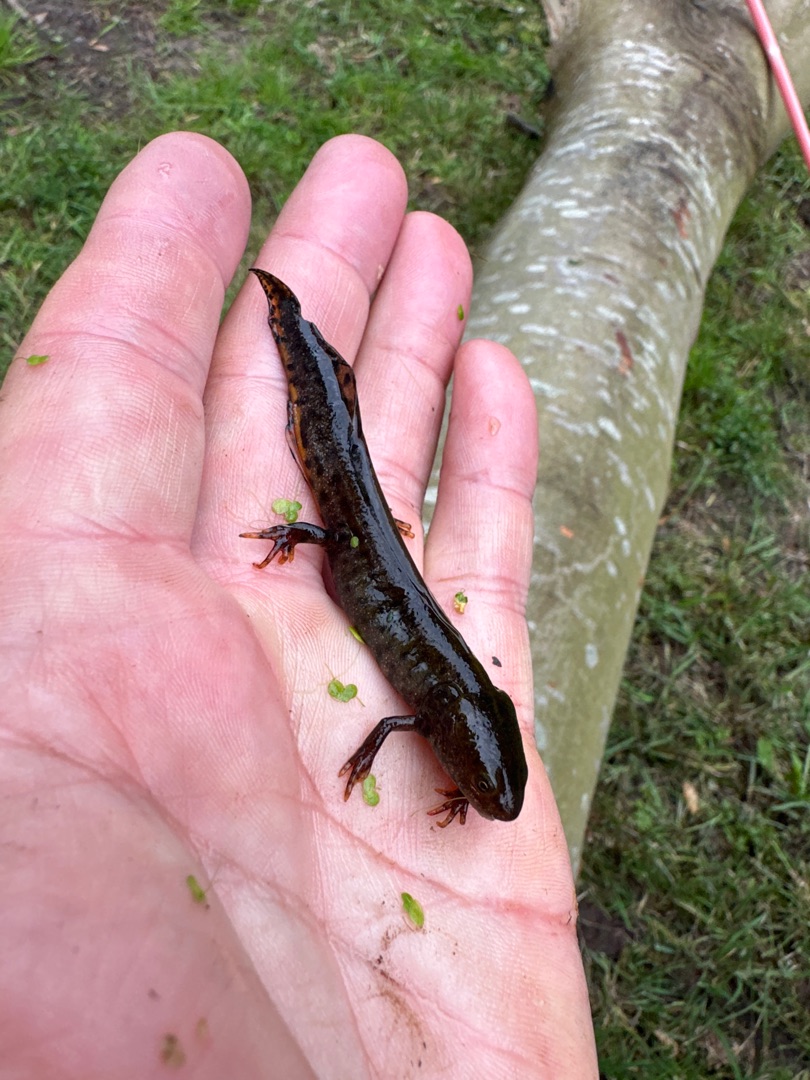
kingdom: Animalia
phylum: Chordata
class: Amphibia
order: Caudata
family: Salamandridae
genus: Triturus
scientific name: Triturus cristatus
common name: Stor vandsalamander
